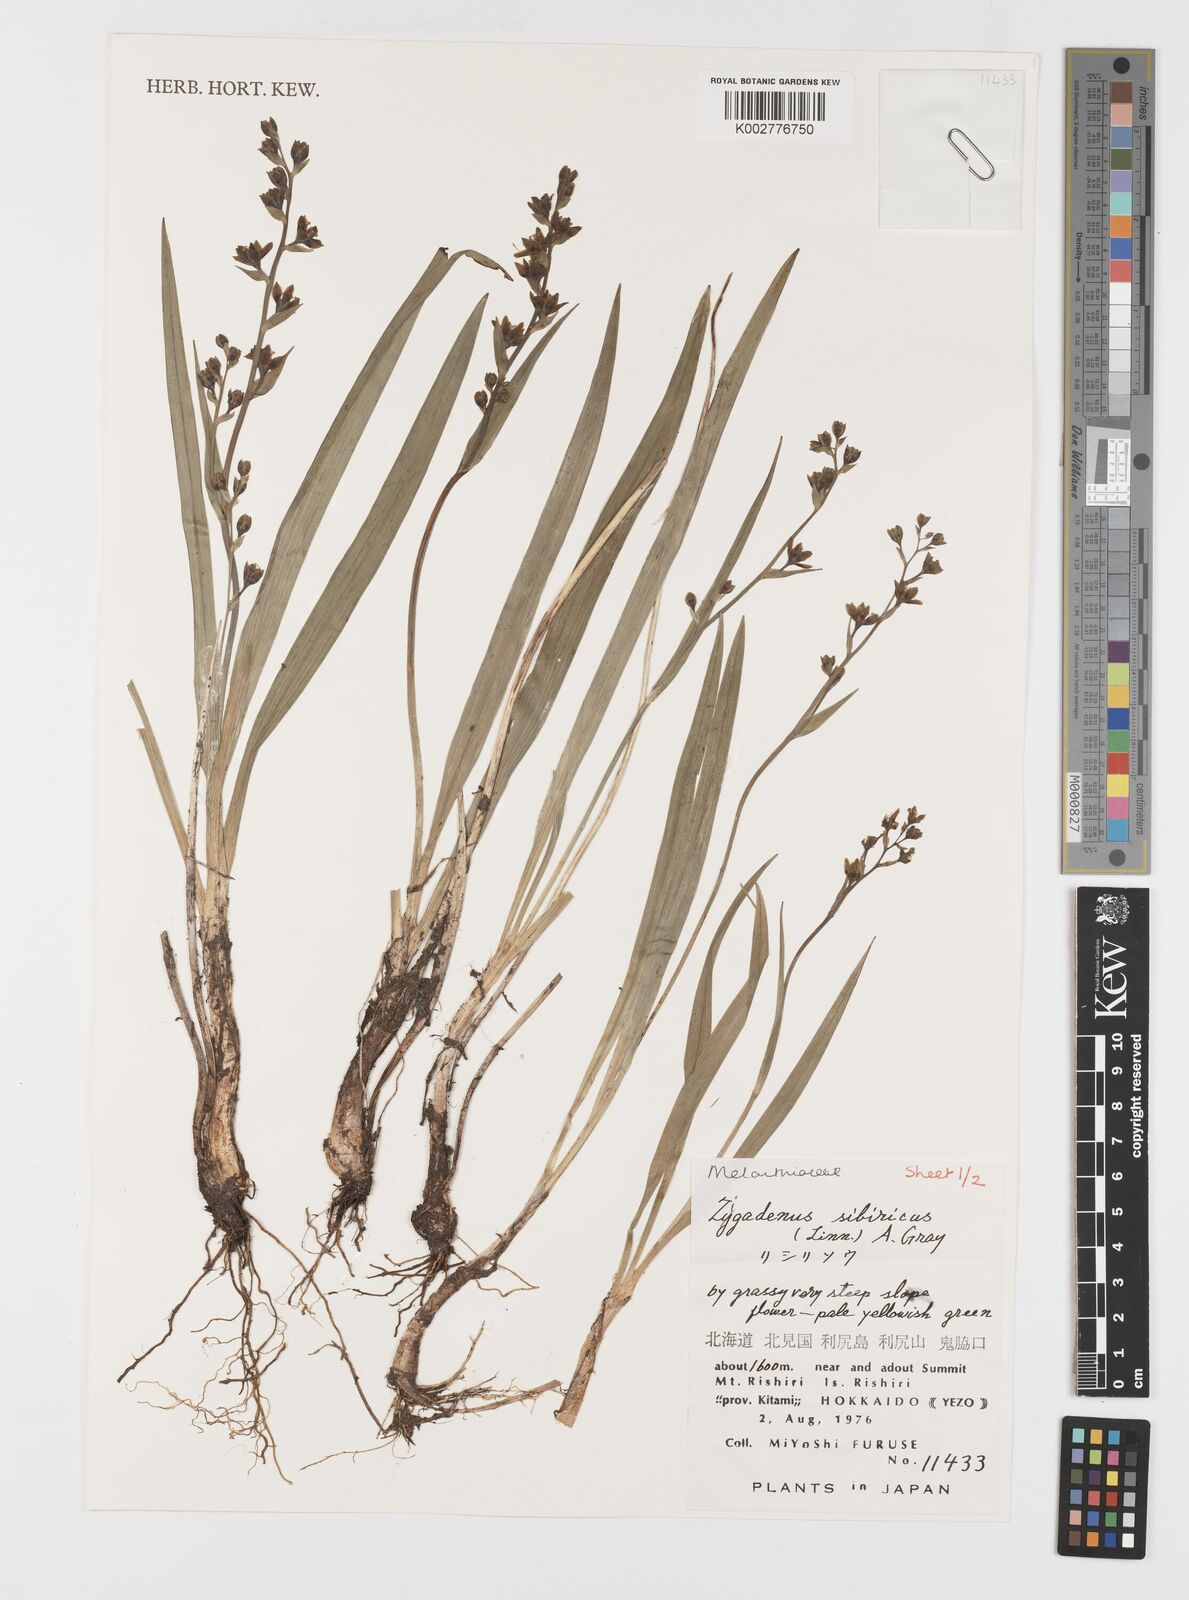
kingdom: Plantae
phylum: Tracheophyta
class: Liliopsida
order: Liliales
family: Melanthiaceae
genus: Anticlea
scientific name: Anticlea sibirica
